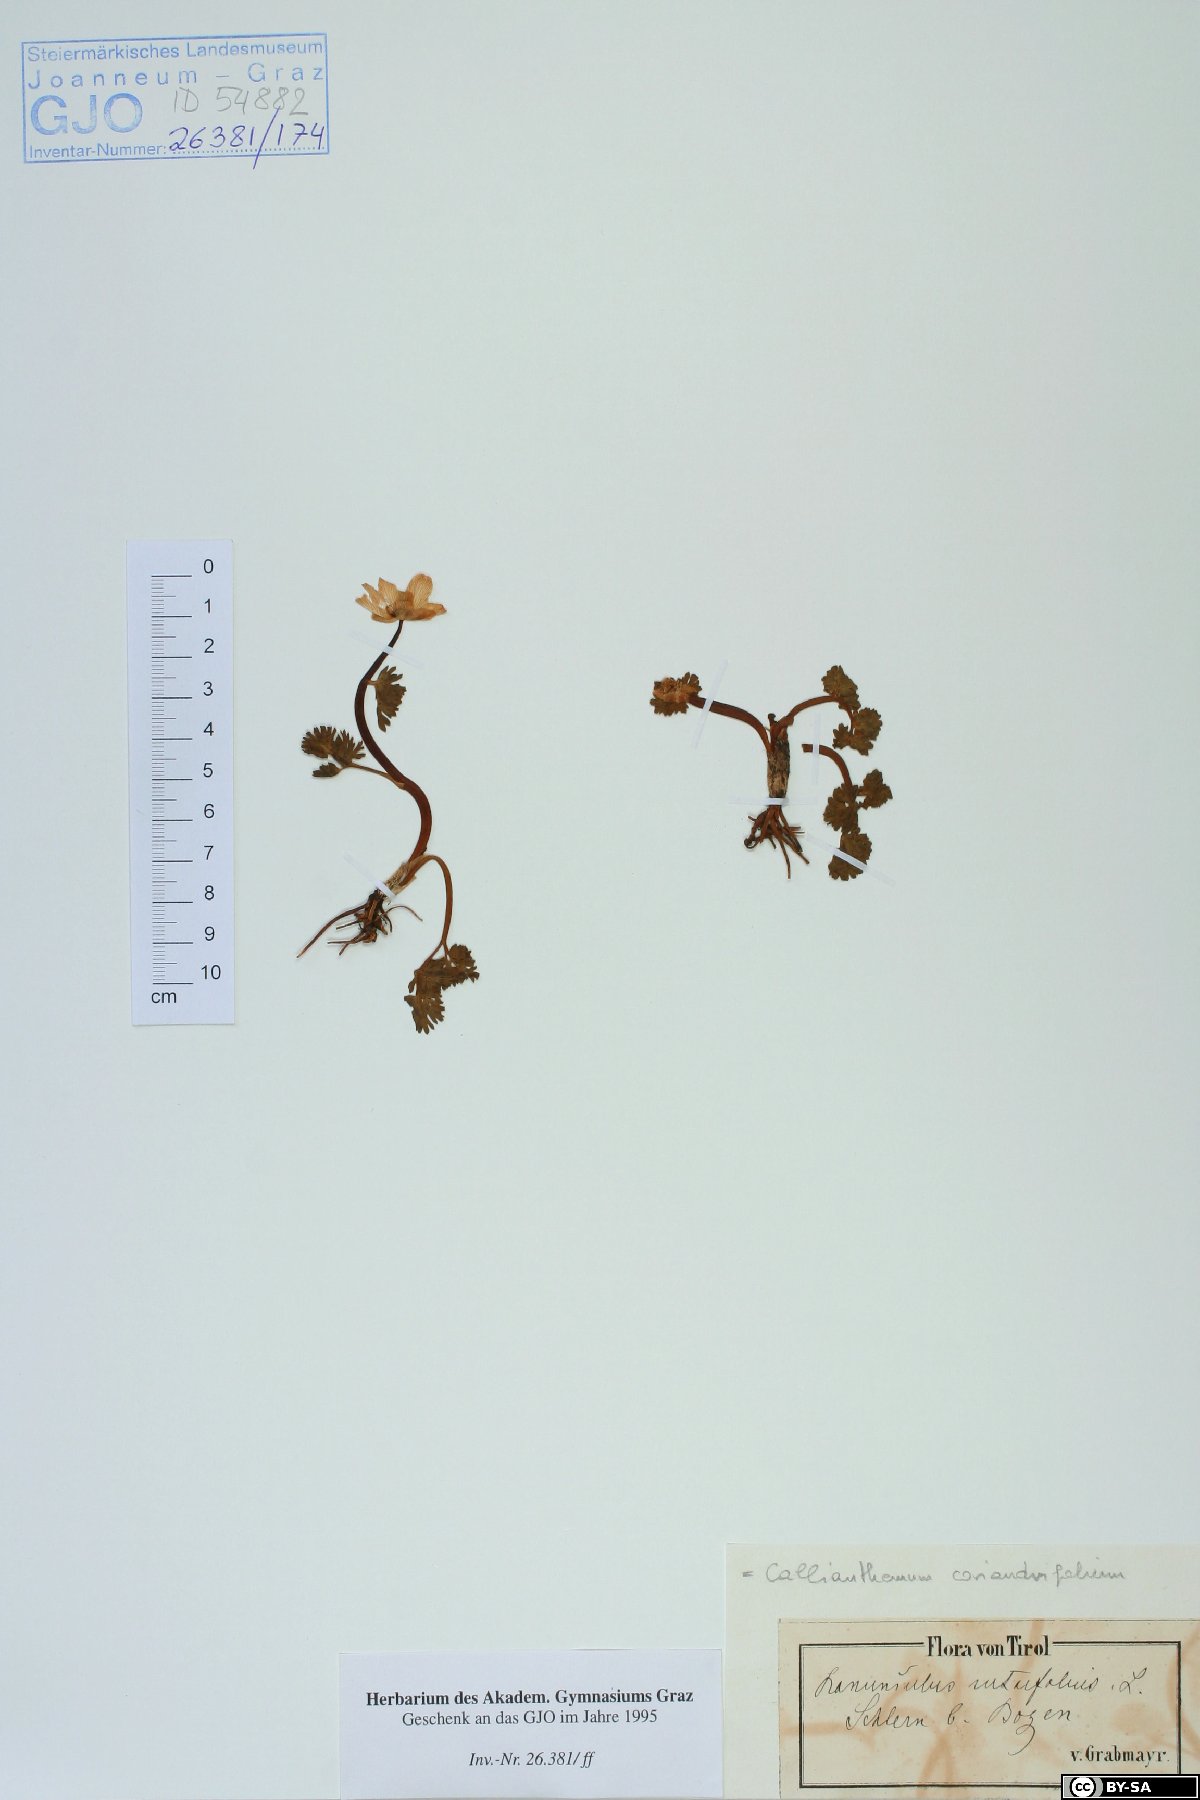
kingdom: Plantae
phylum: Tracheophyta
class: Magnoliopsida
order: Ranunculales
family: Ranunculaceae
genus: Callianthemum
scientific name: Callianthemum anemonoides
